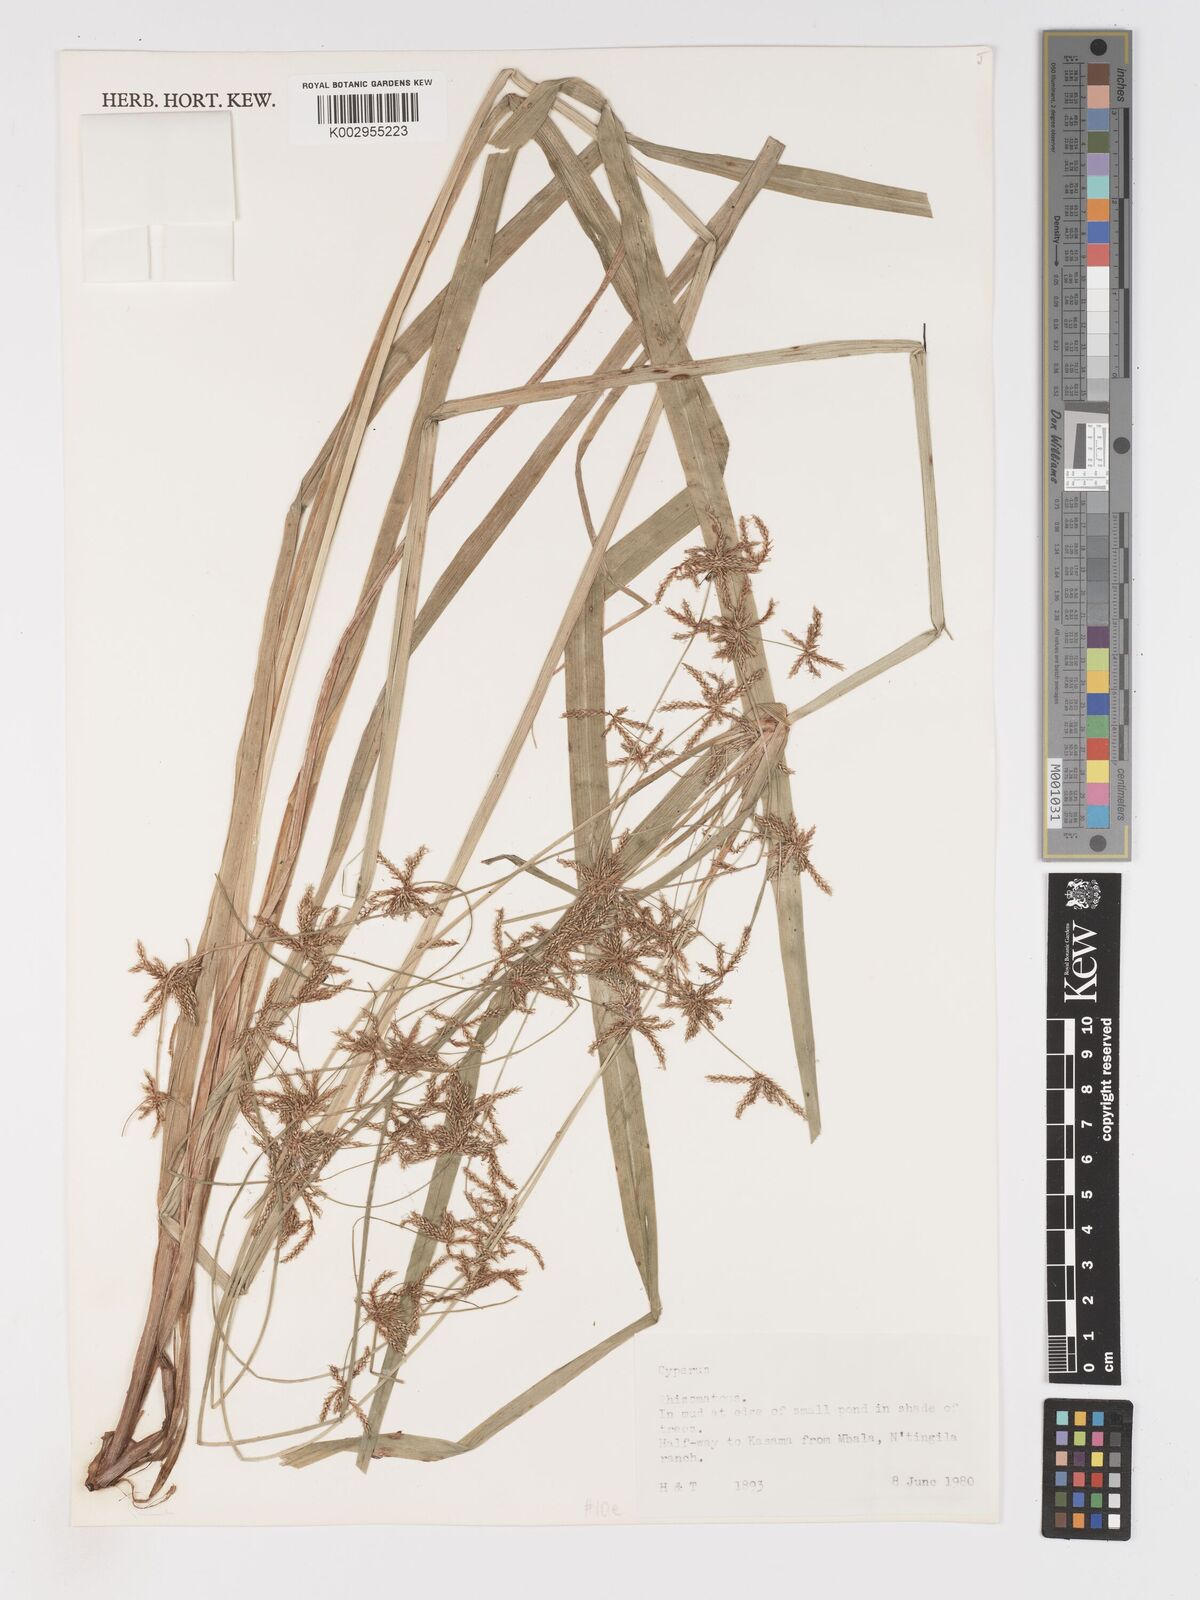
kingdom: Plantae
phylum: Tracheophyta
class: Liliopsida
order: Poales
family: Cyperaceae
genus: Cyperus
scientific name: Cyperus
